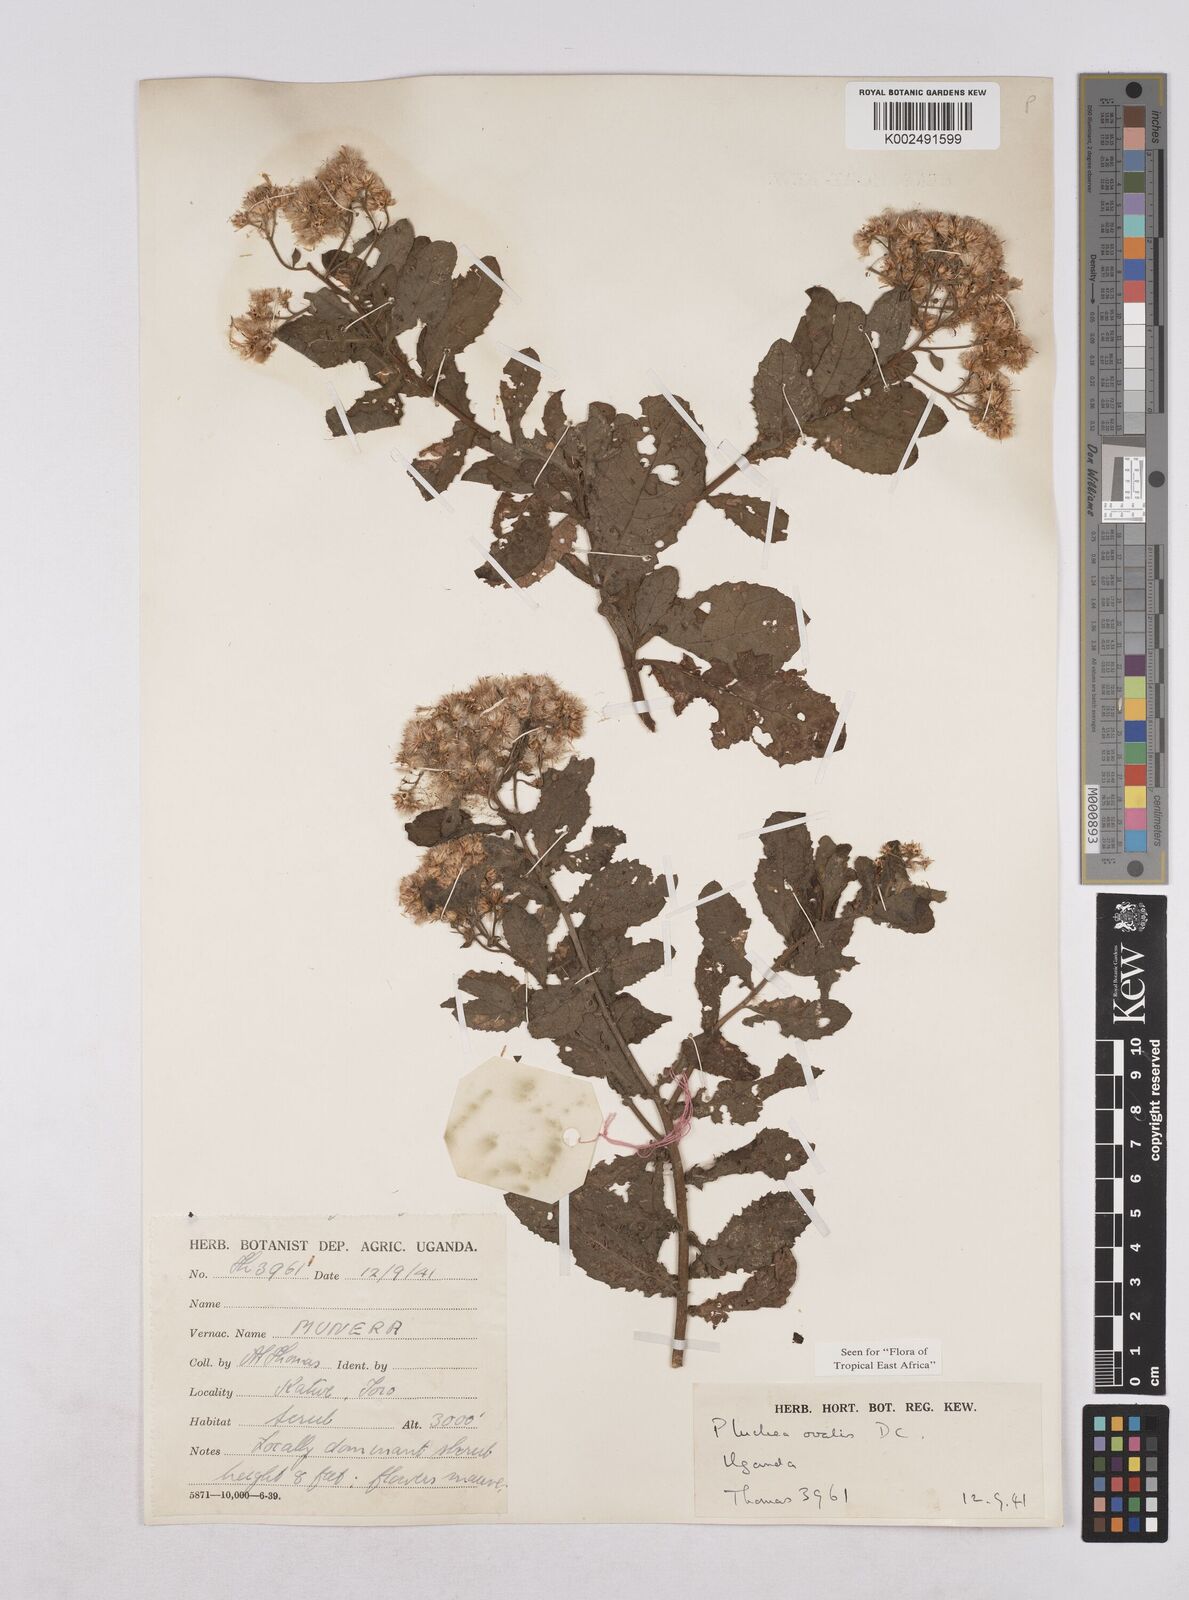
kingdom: Plantae
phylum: Tracheophyta
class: Magnoliopsida
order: Asterales
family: Asteraceae
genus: Pluchea
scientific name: Pluchea ovalis
